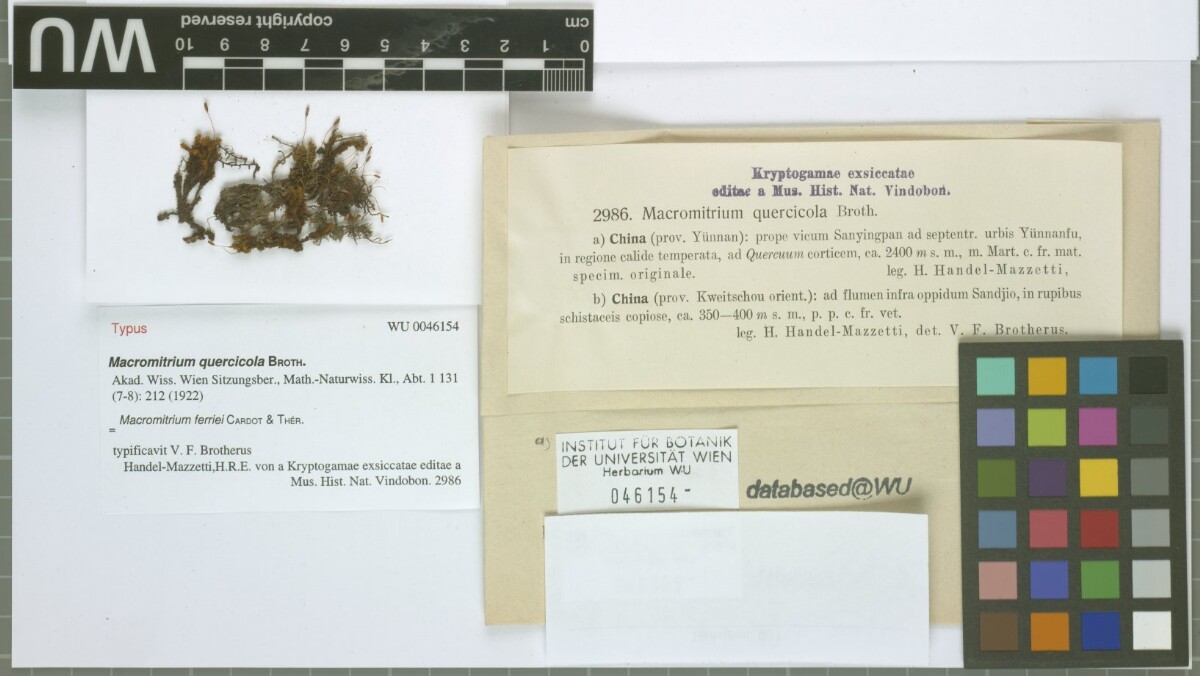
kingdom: Plantae
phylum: Bryophyta
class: Bryopsida
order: Orthotrichales
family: Orthotrichaceae
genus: Macromitrium
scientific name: Macromitrium ferriei
